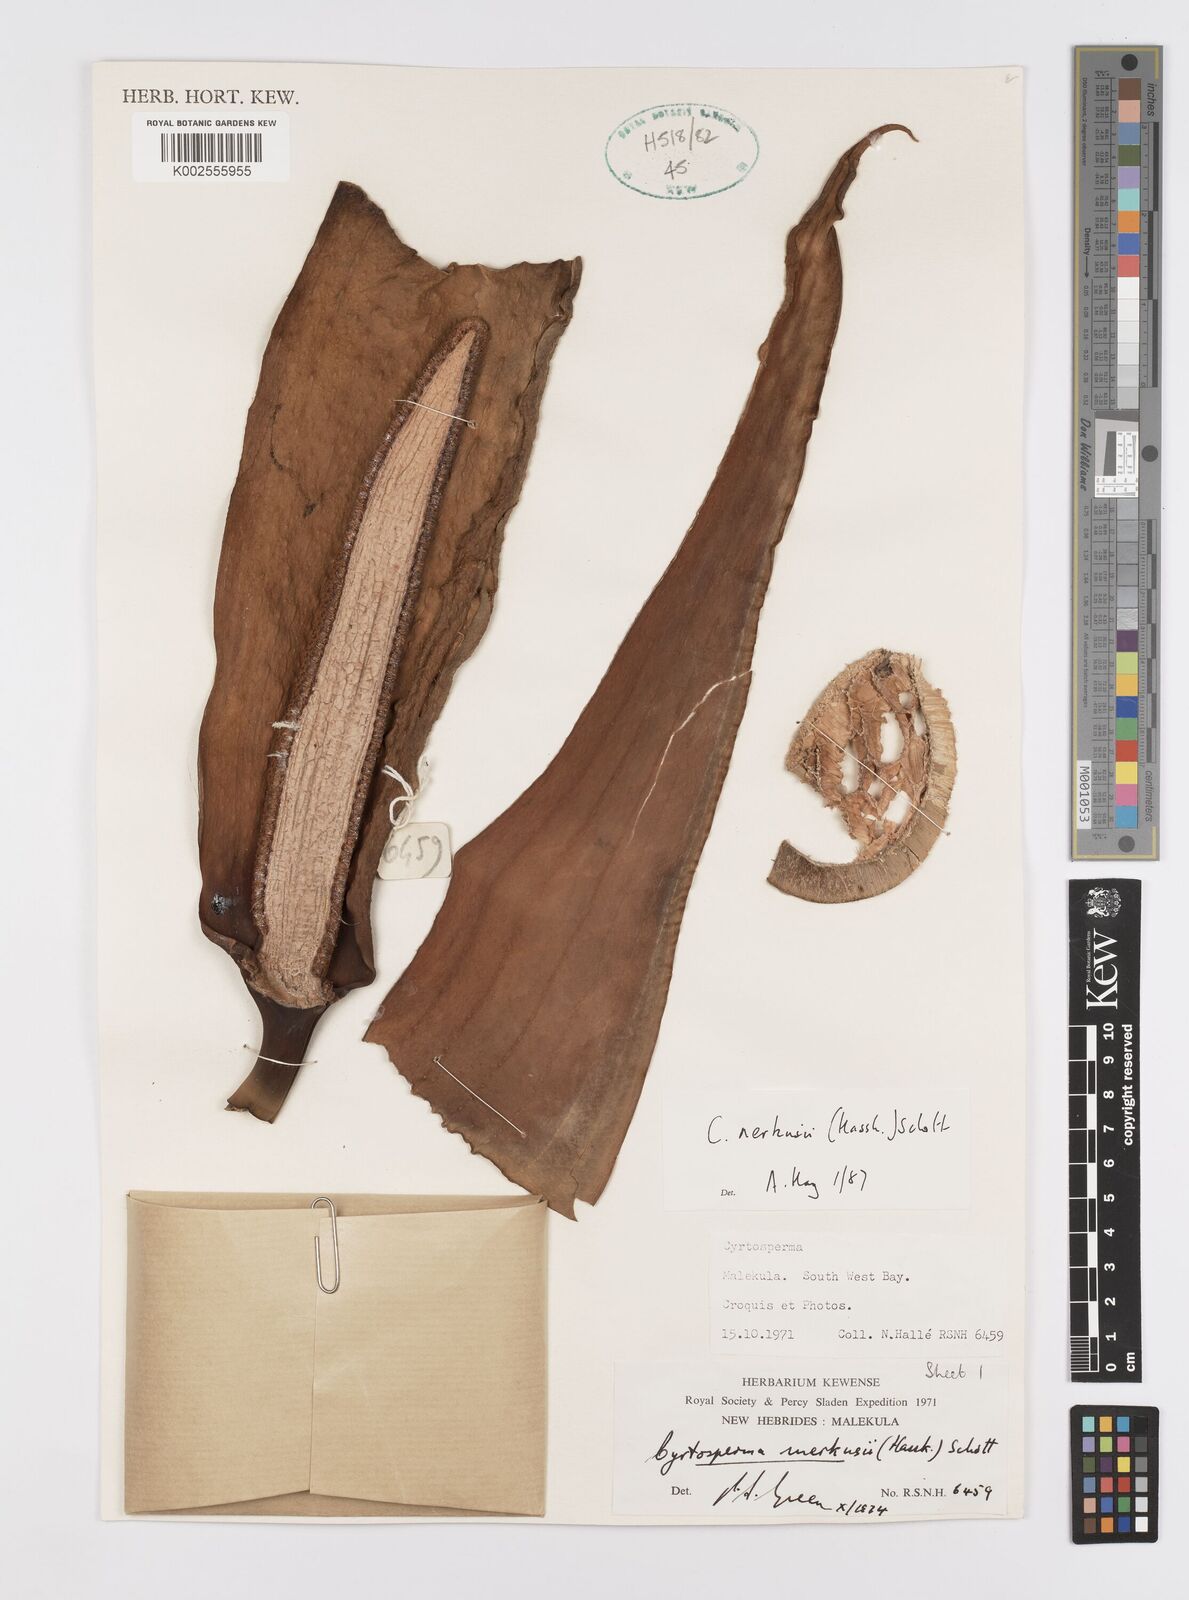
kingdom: Plantae
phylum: Tracheophyta
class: Liliopsida
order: Alismatales
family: Araceae
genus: Cyrtosperma
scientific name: Cyrtosperma merkusii
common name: Giant swamp-taro
